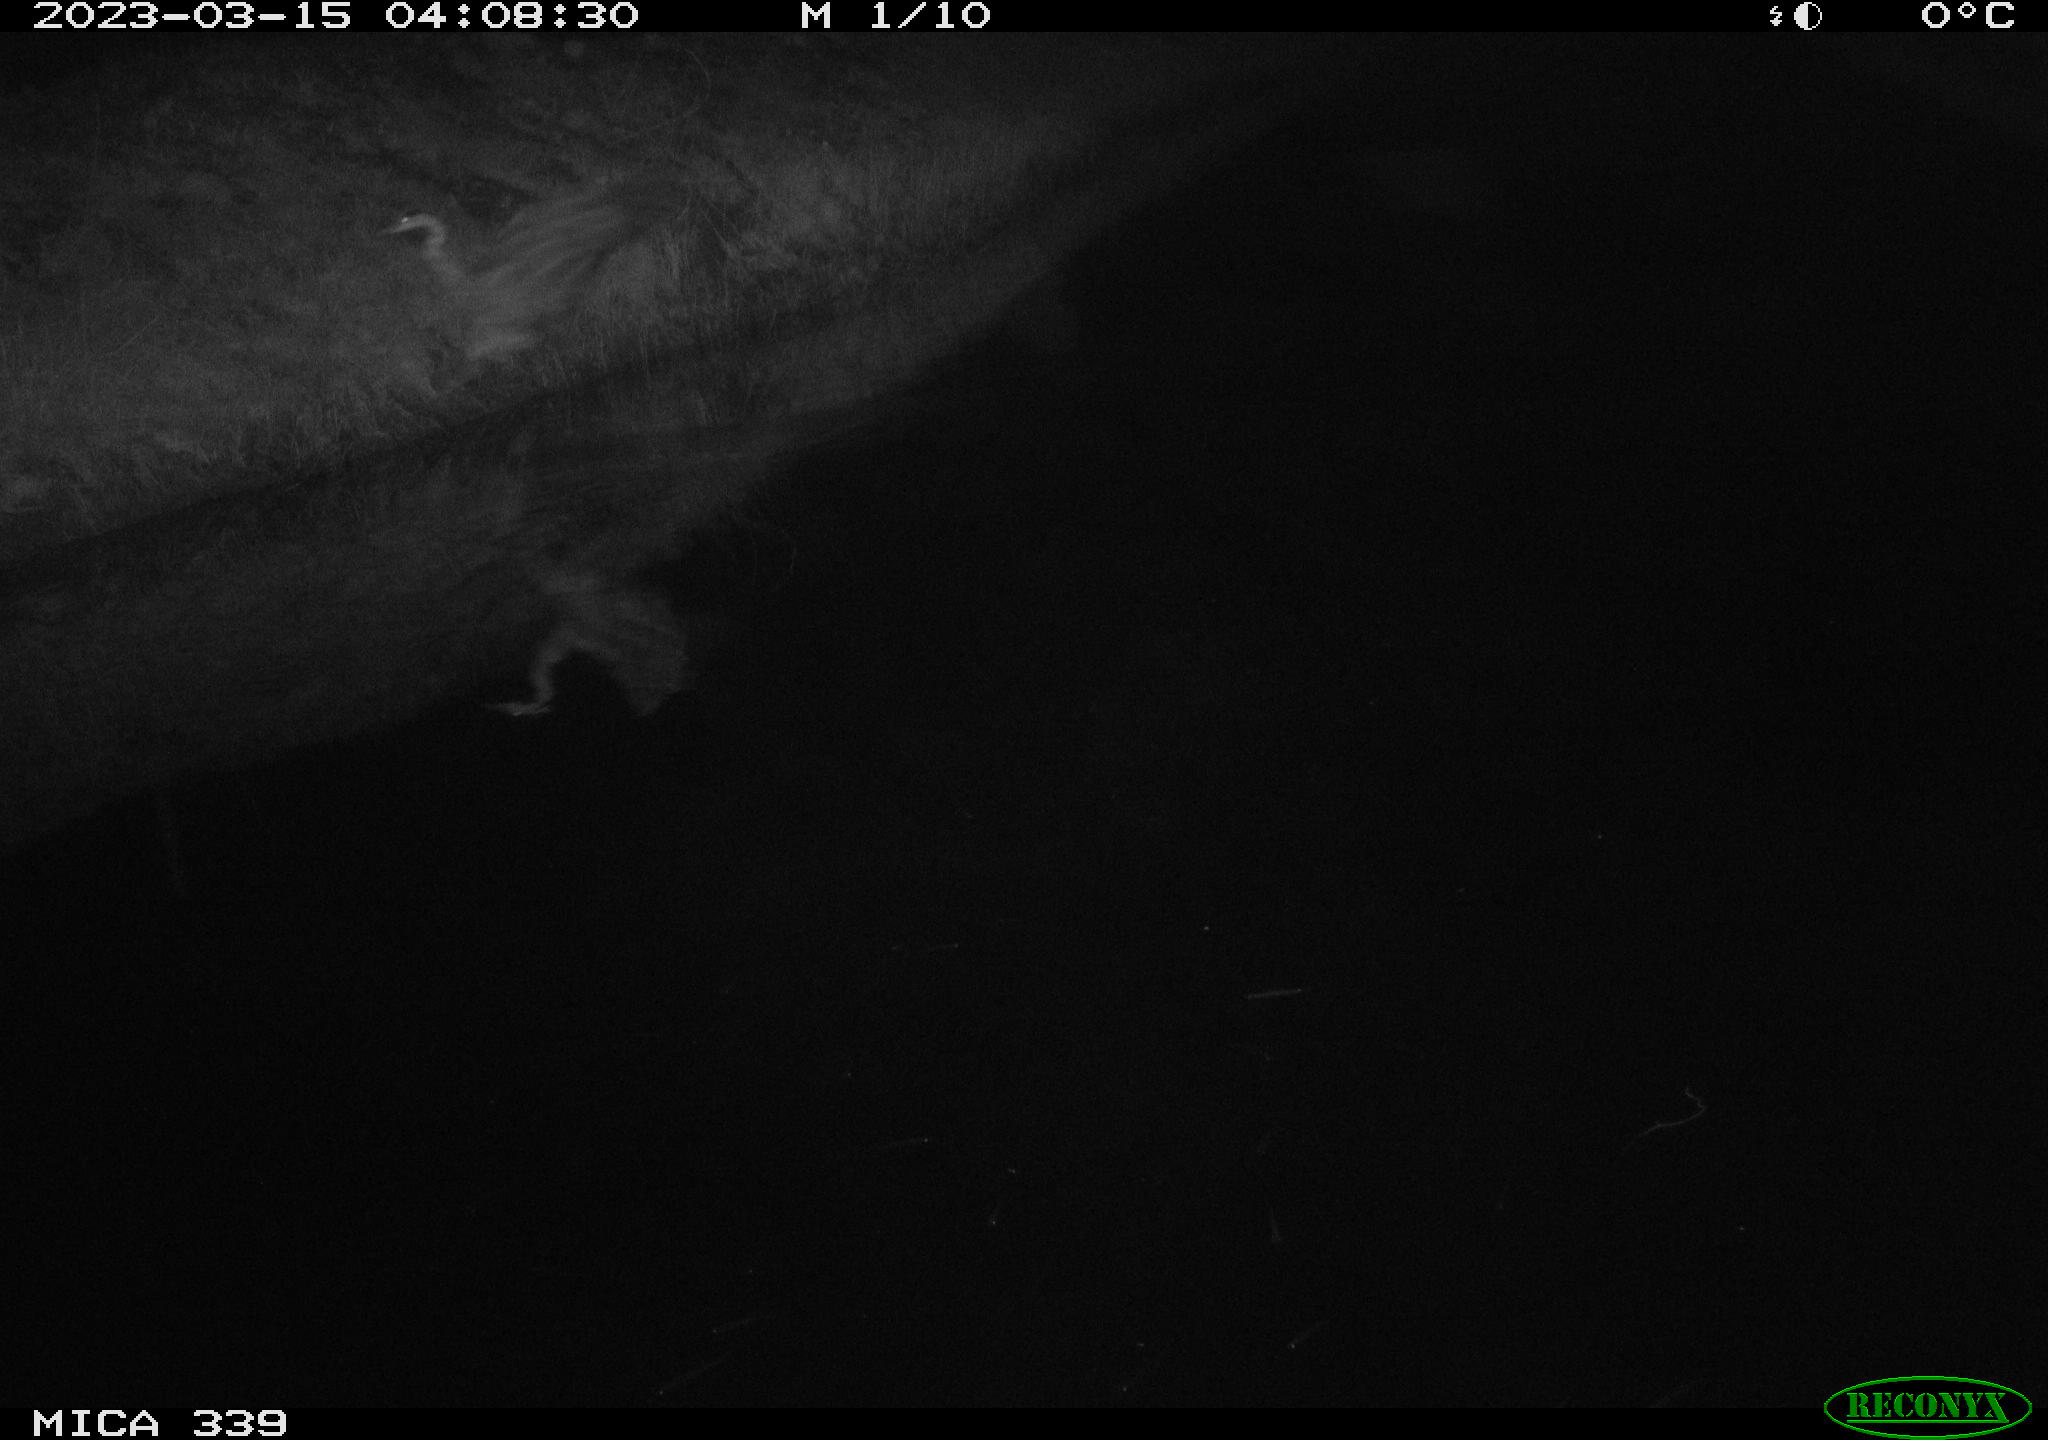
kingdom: Animalia
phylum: Chordata
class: Aves
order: Pelecaniformes
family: Ardeidae
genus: Ardea
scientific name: Ardea
